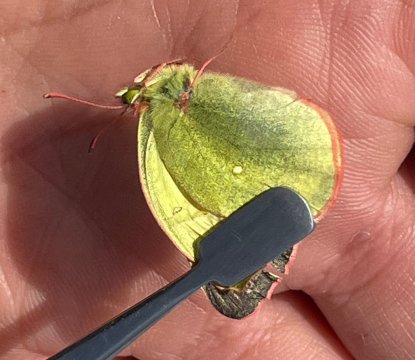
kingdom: Animalia
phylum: Arthropoda
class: Insecta
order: Lepidoptera
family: Pieridae
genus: Colias
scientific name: Colias palaeno
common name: Chippewa Sulphur
